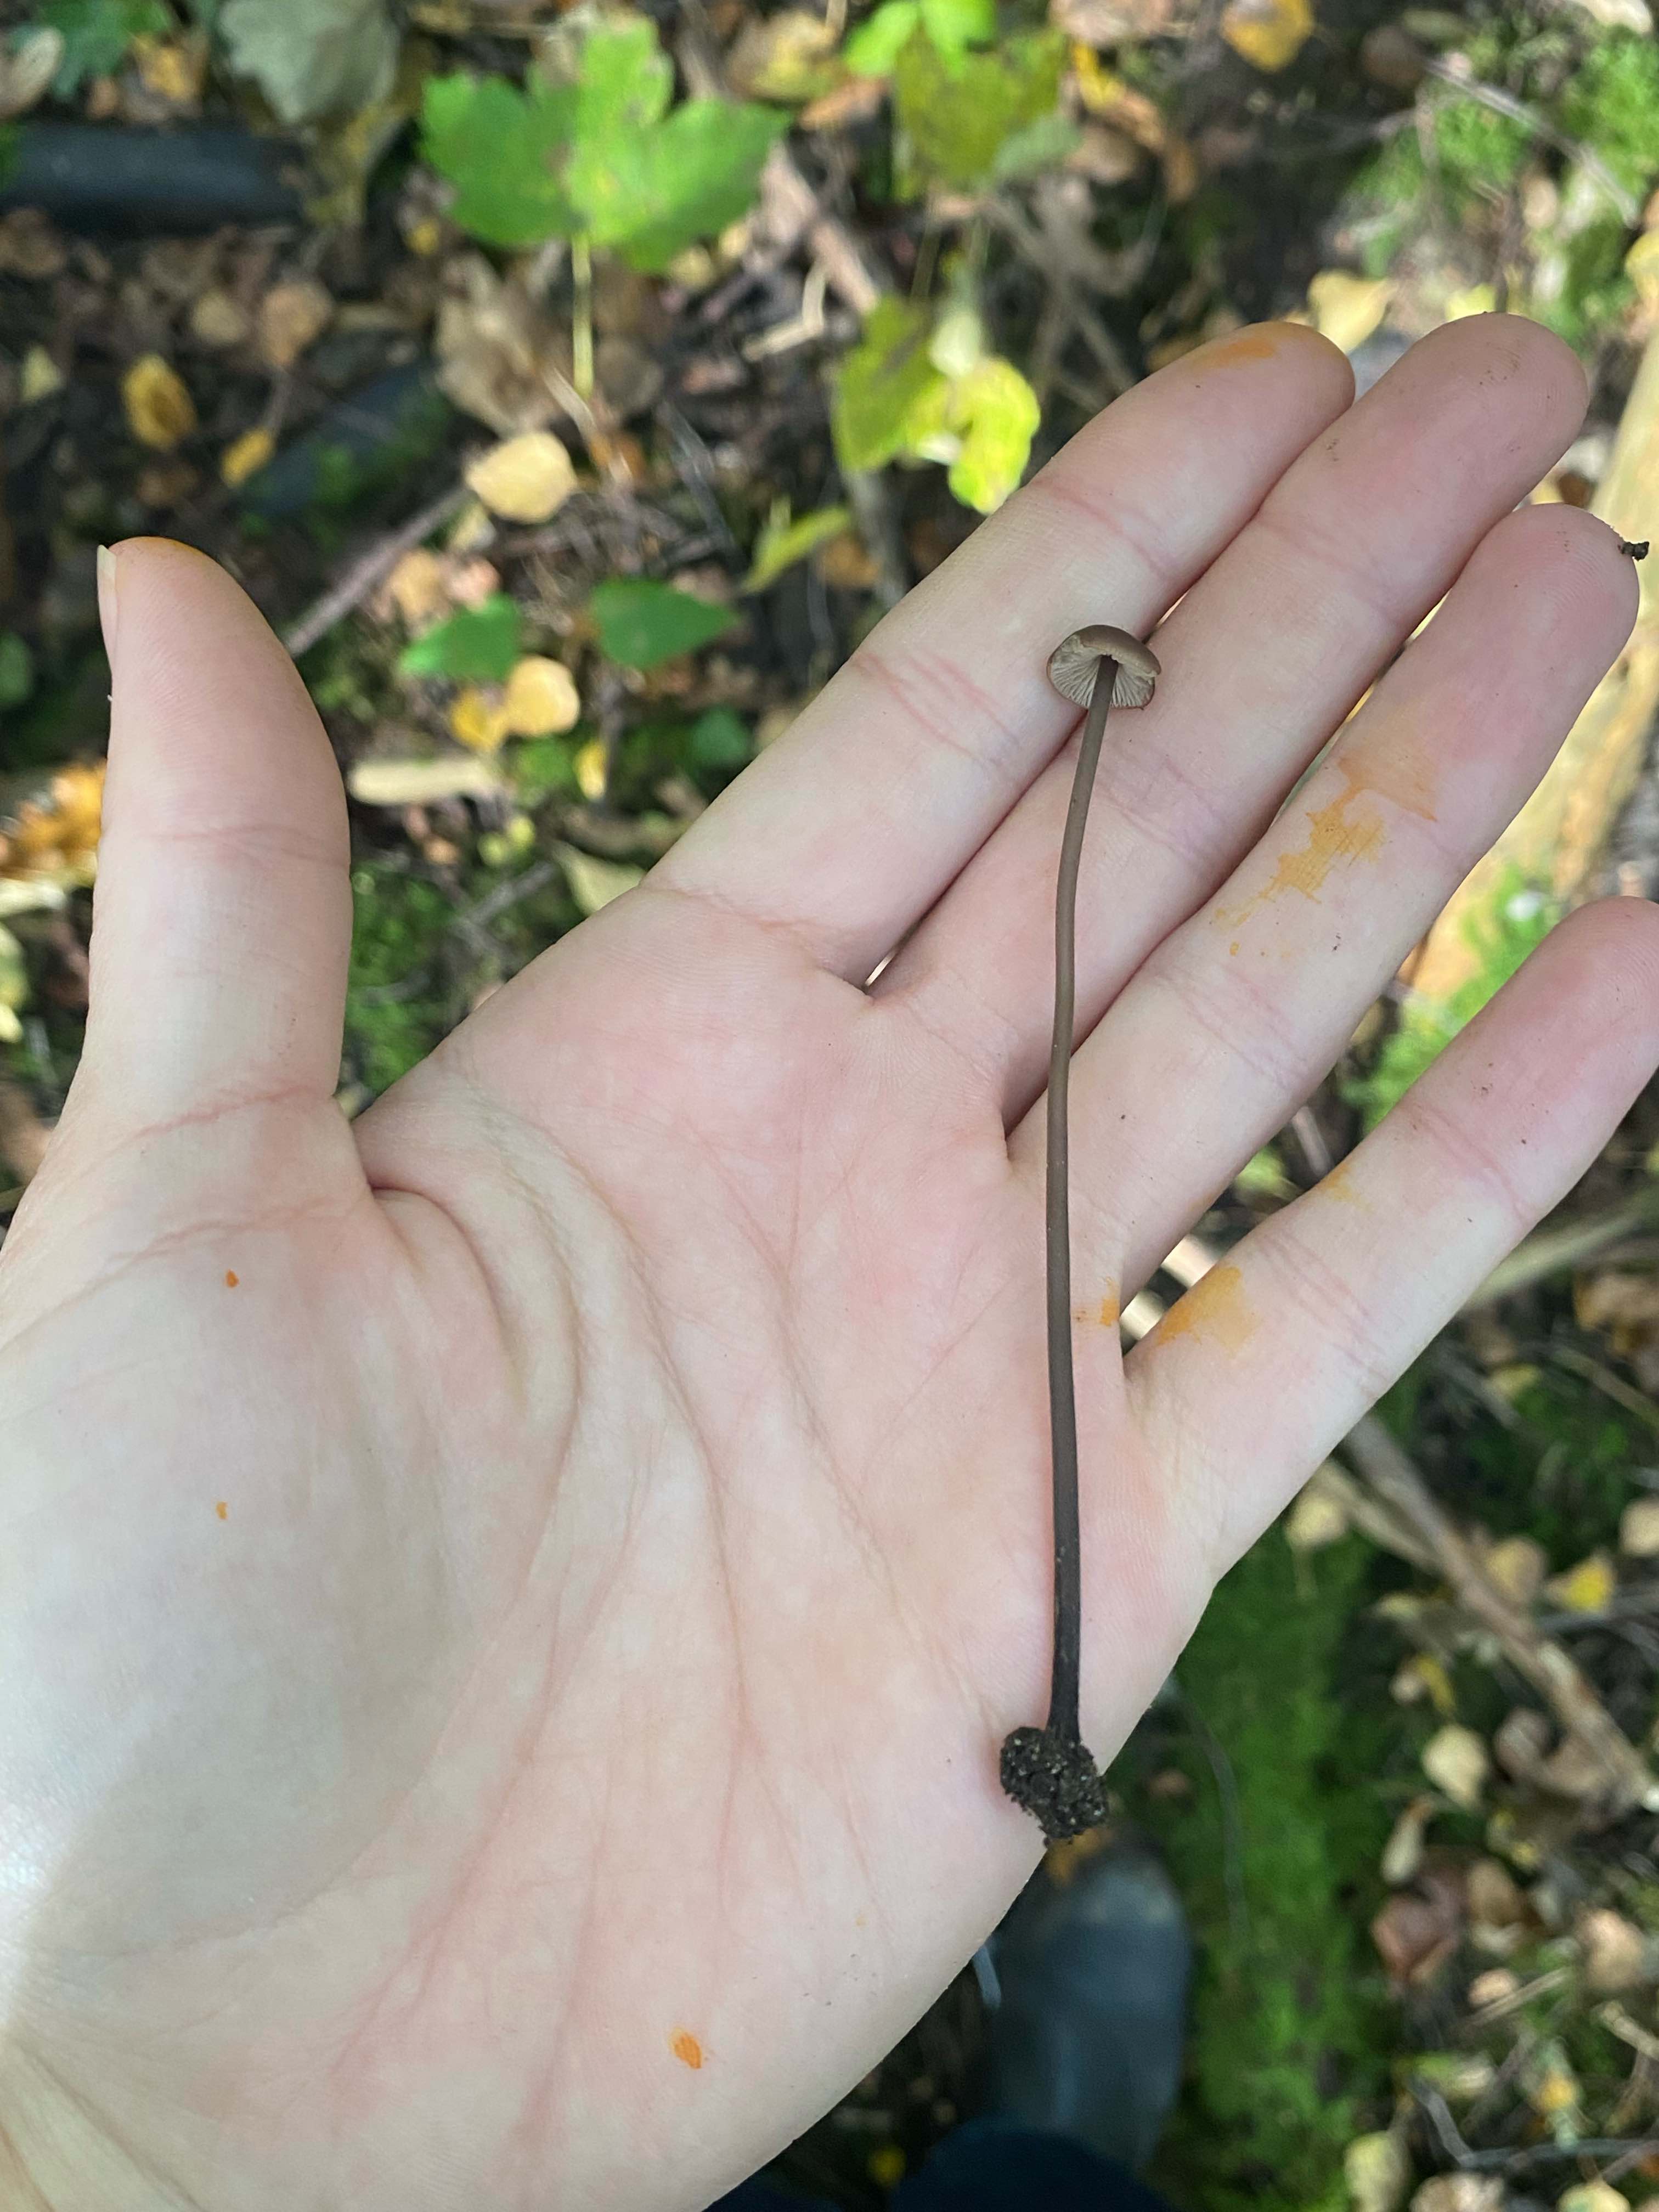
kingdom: Fungi
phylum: Basidiomycota
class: Agaricomycetes
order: Agaricales
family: Omphalotaceae
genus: Mycetinis
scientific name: Mycetinis alliaceus
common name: stor løghat
